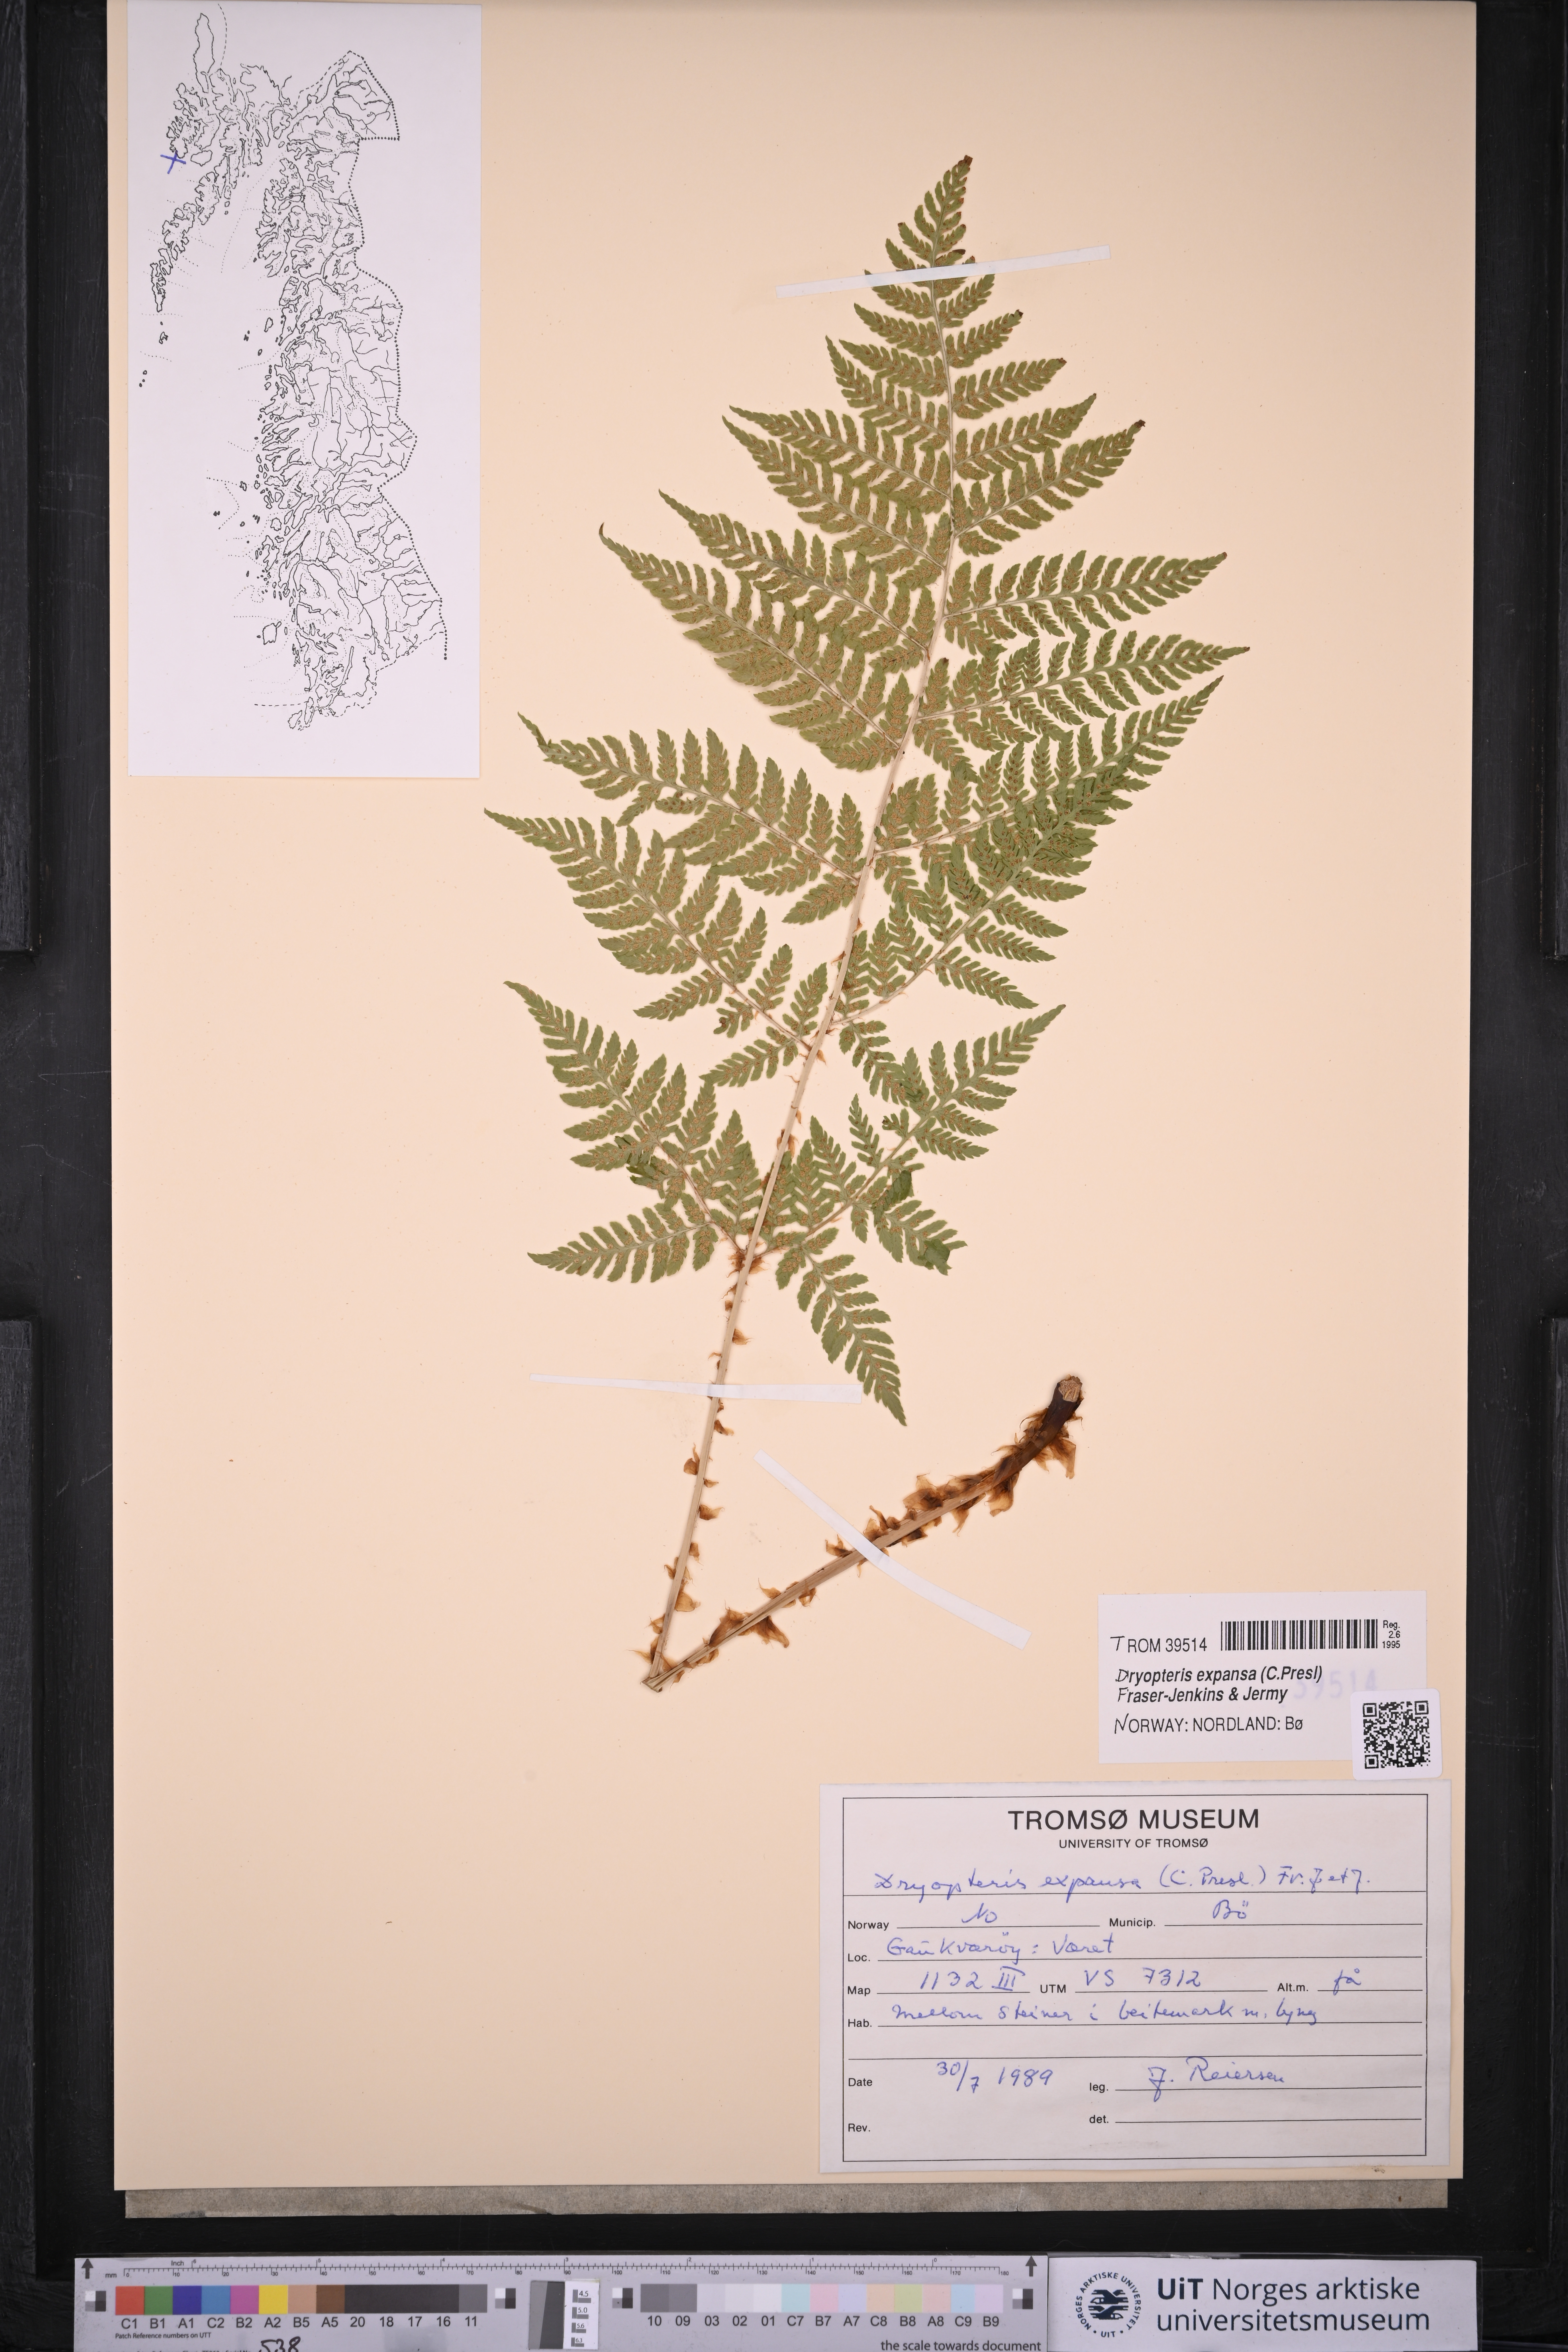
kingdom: Plantae
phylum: Tracheophyta
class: Polypodiopsida
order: Polypodiales
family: Dryopteridaceae
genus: Dryopteris
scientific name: Dryopteris expansa
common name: Northern buckler fern
